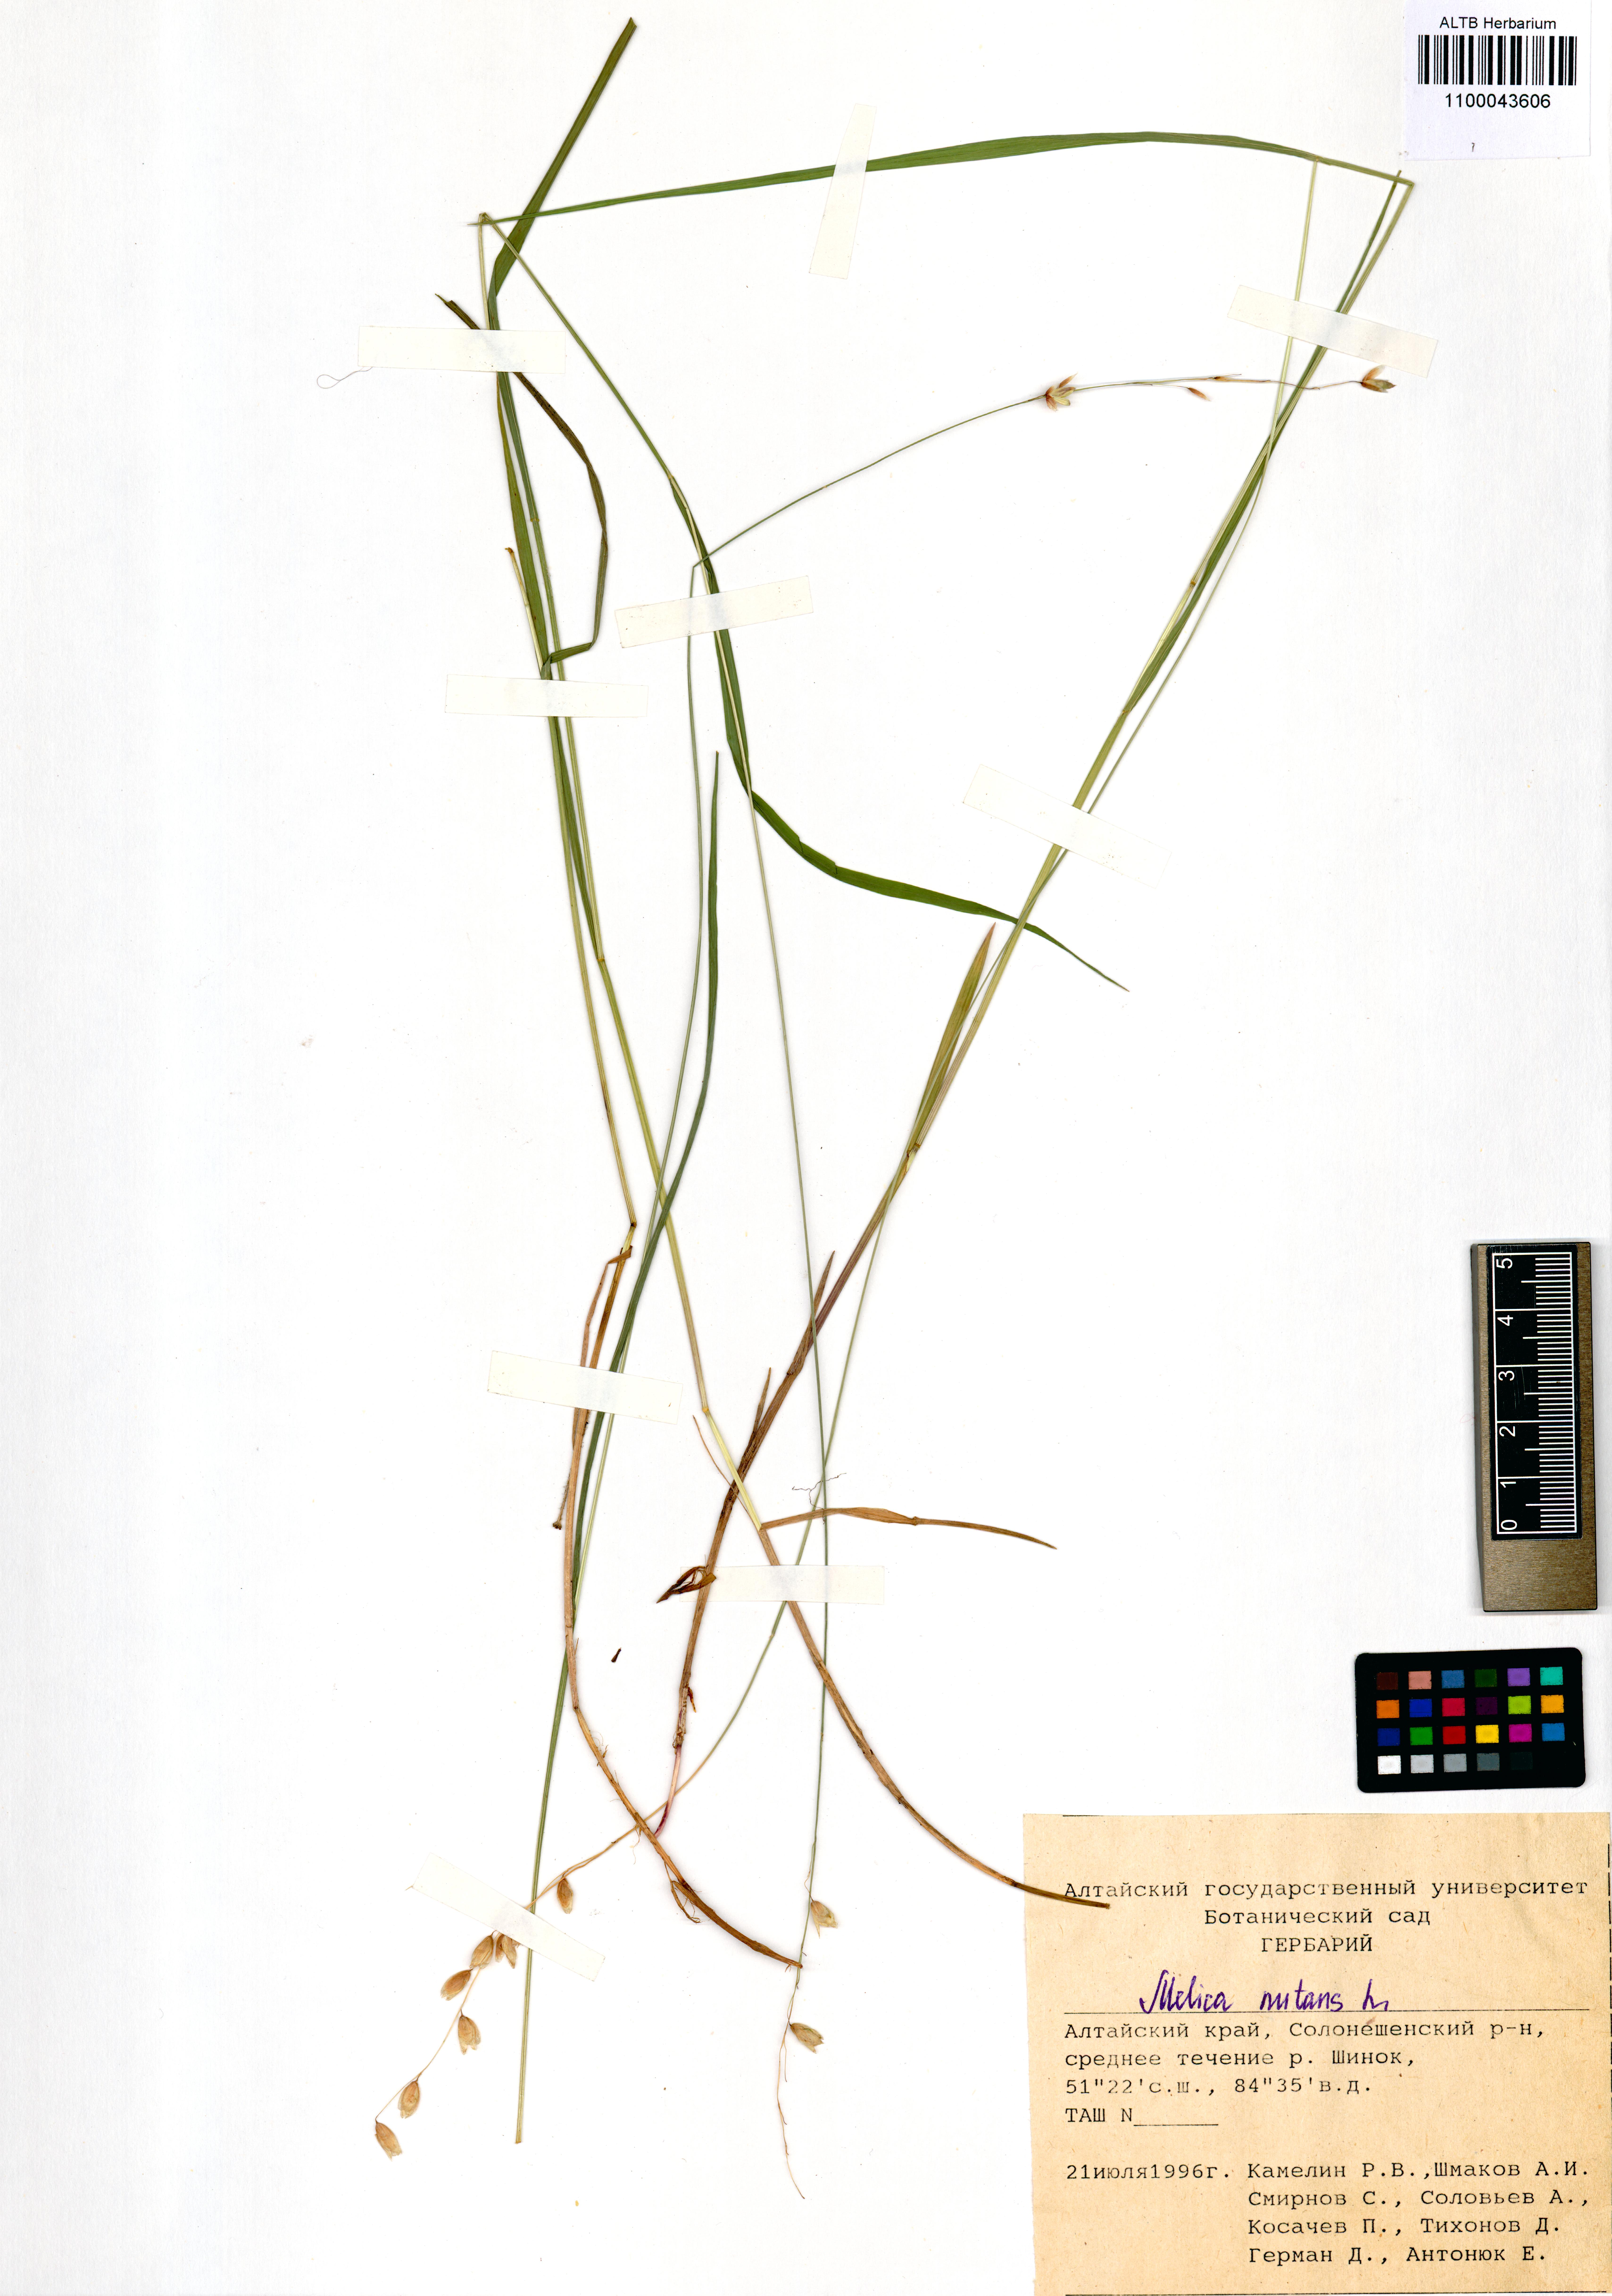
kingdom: Plantae
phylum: Tracheophyta
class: Liliopsida
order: Poales
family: Poaceae
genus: Melica
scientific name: Melica nutans
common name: Mountain melick
